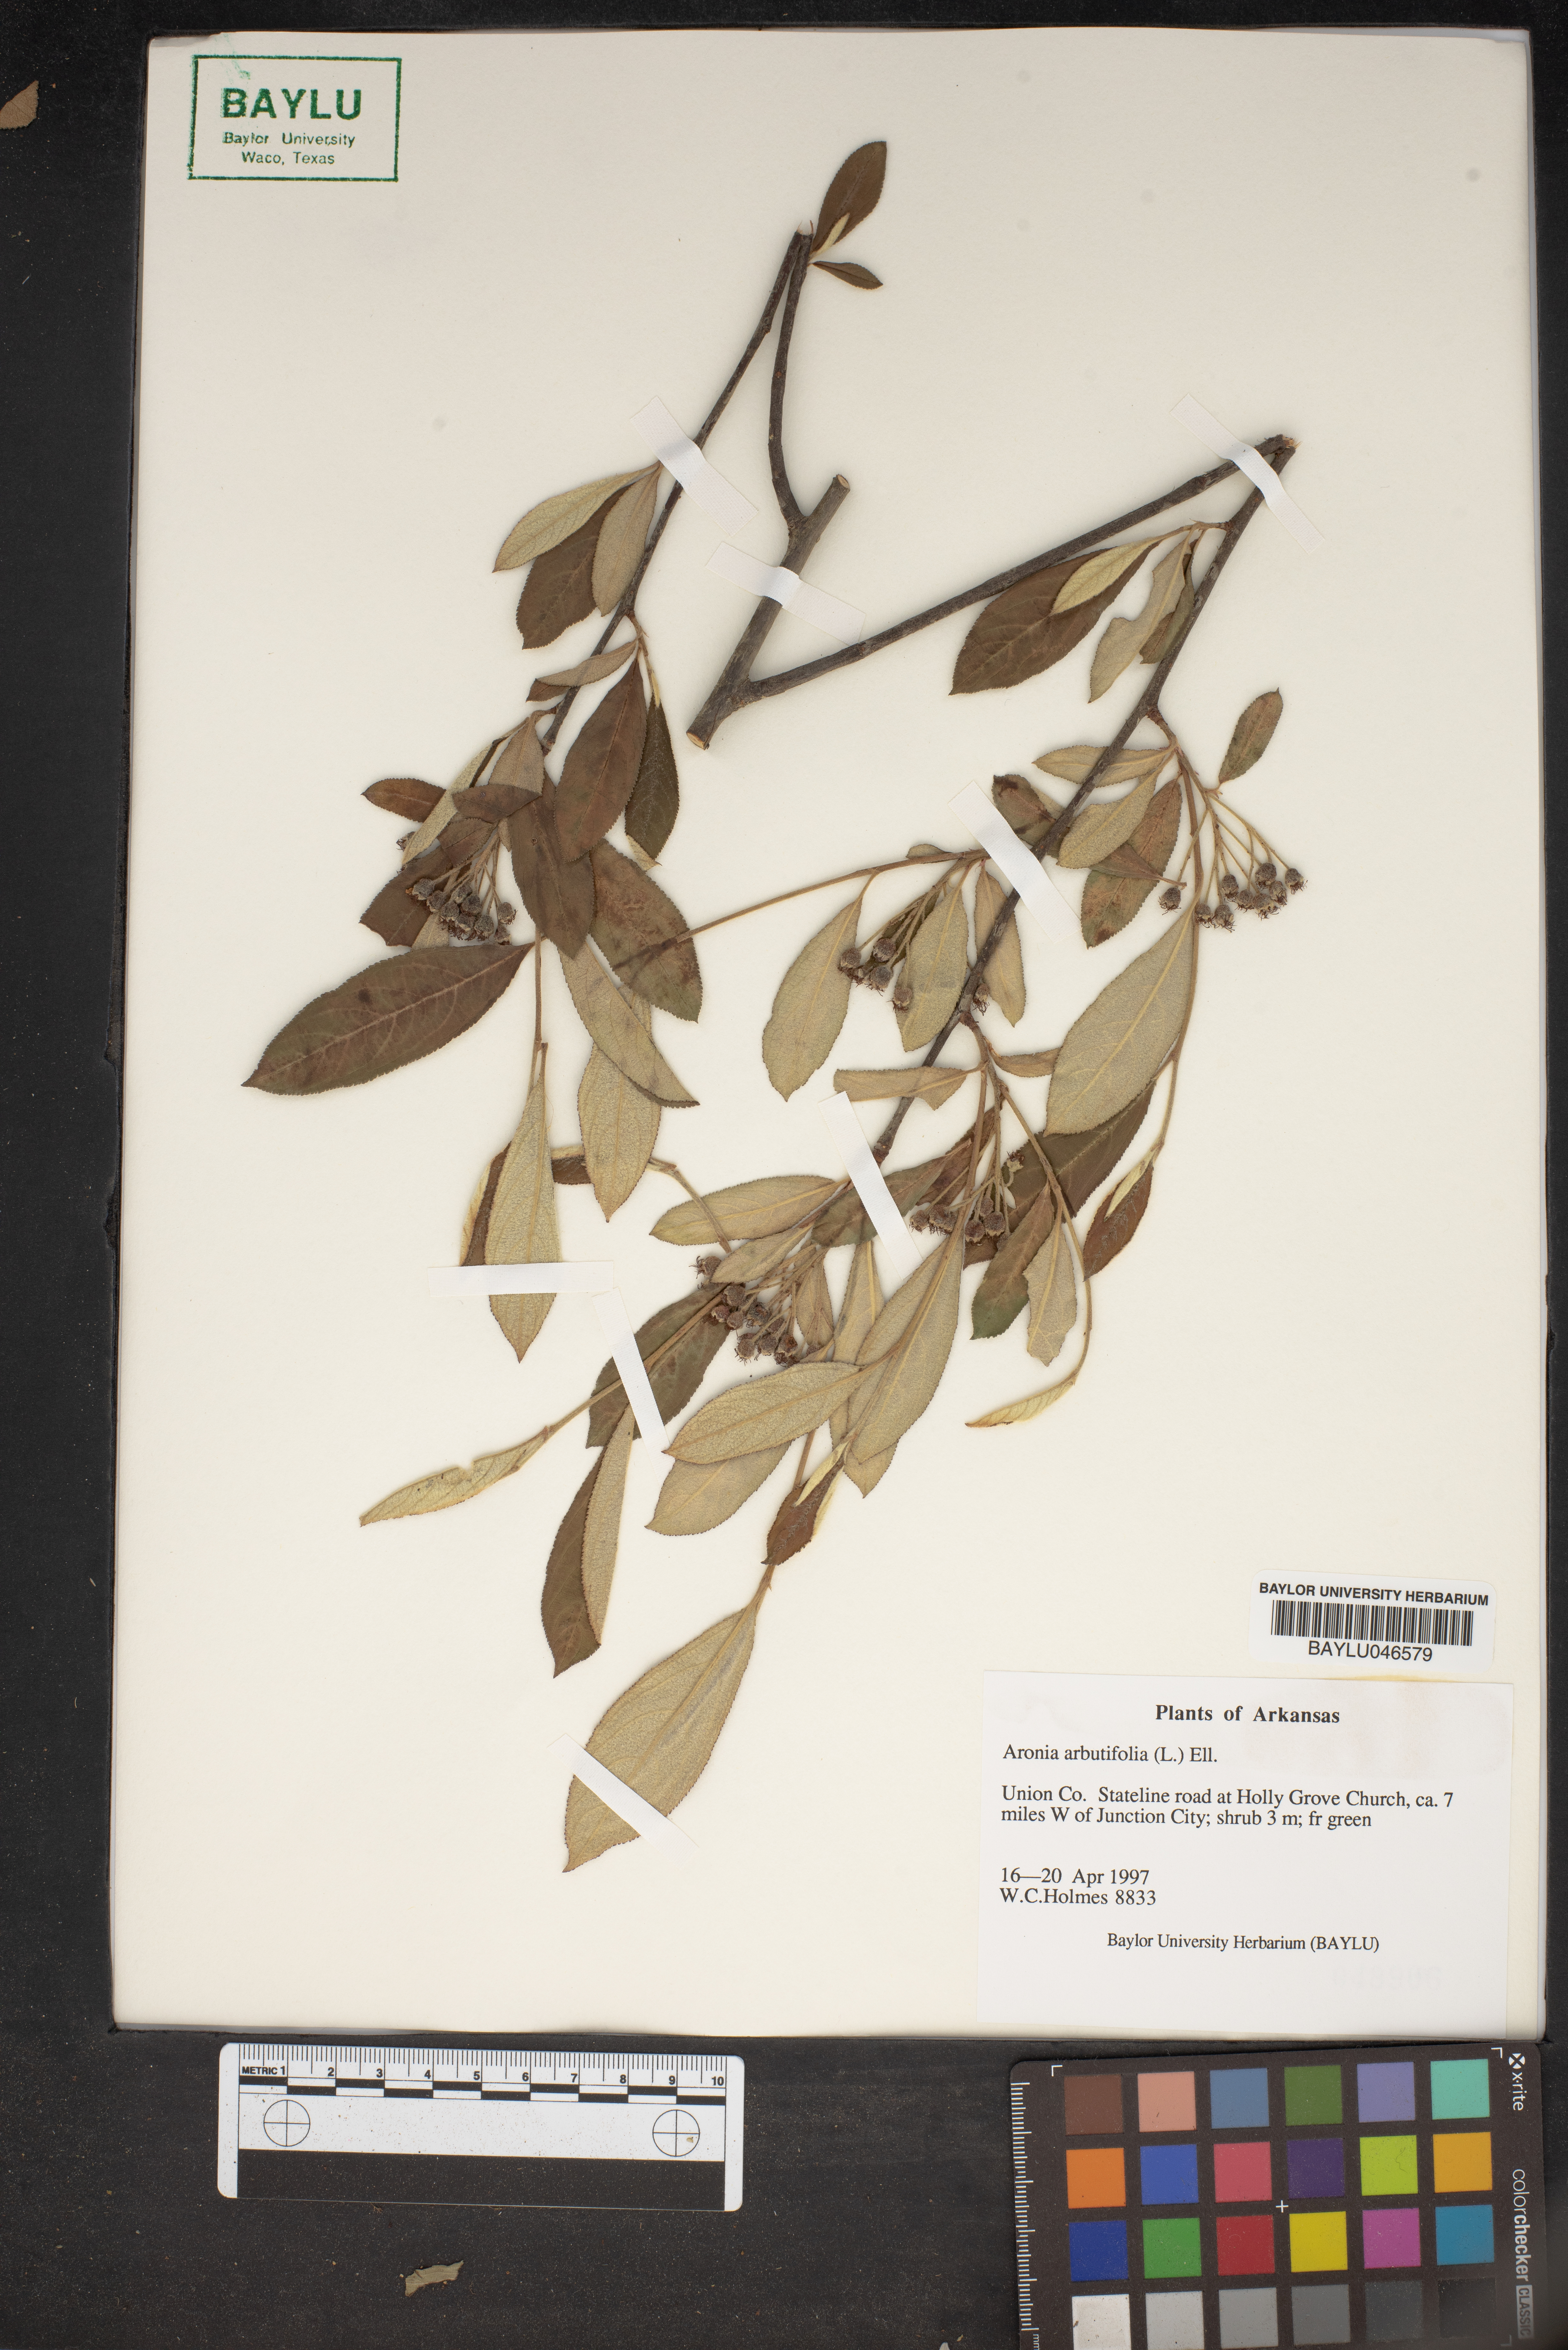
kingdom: Plantae
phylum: Tracheophyta
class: Magnoliopsida
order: Rosales
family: Rosaceae
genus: Aronia
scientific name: Aronia arbutifolia
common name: Red chokeberry
